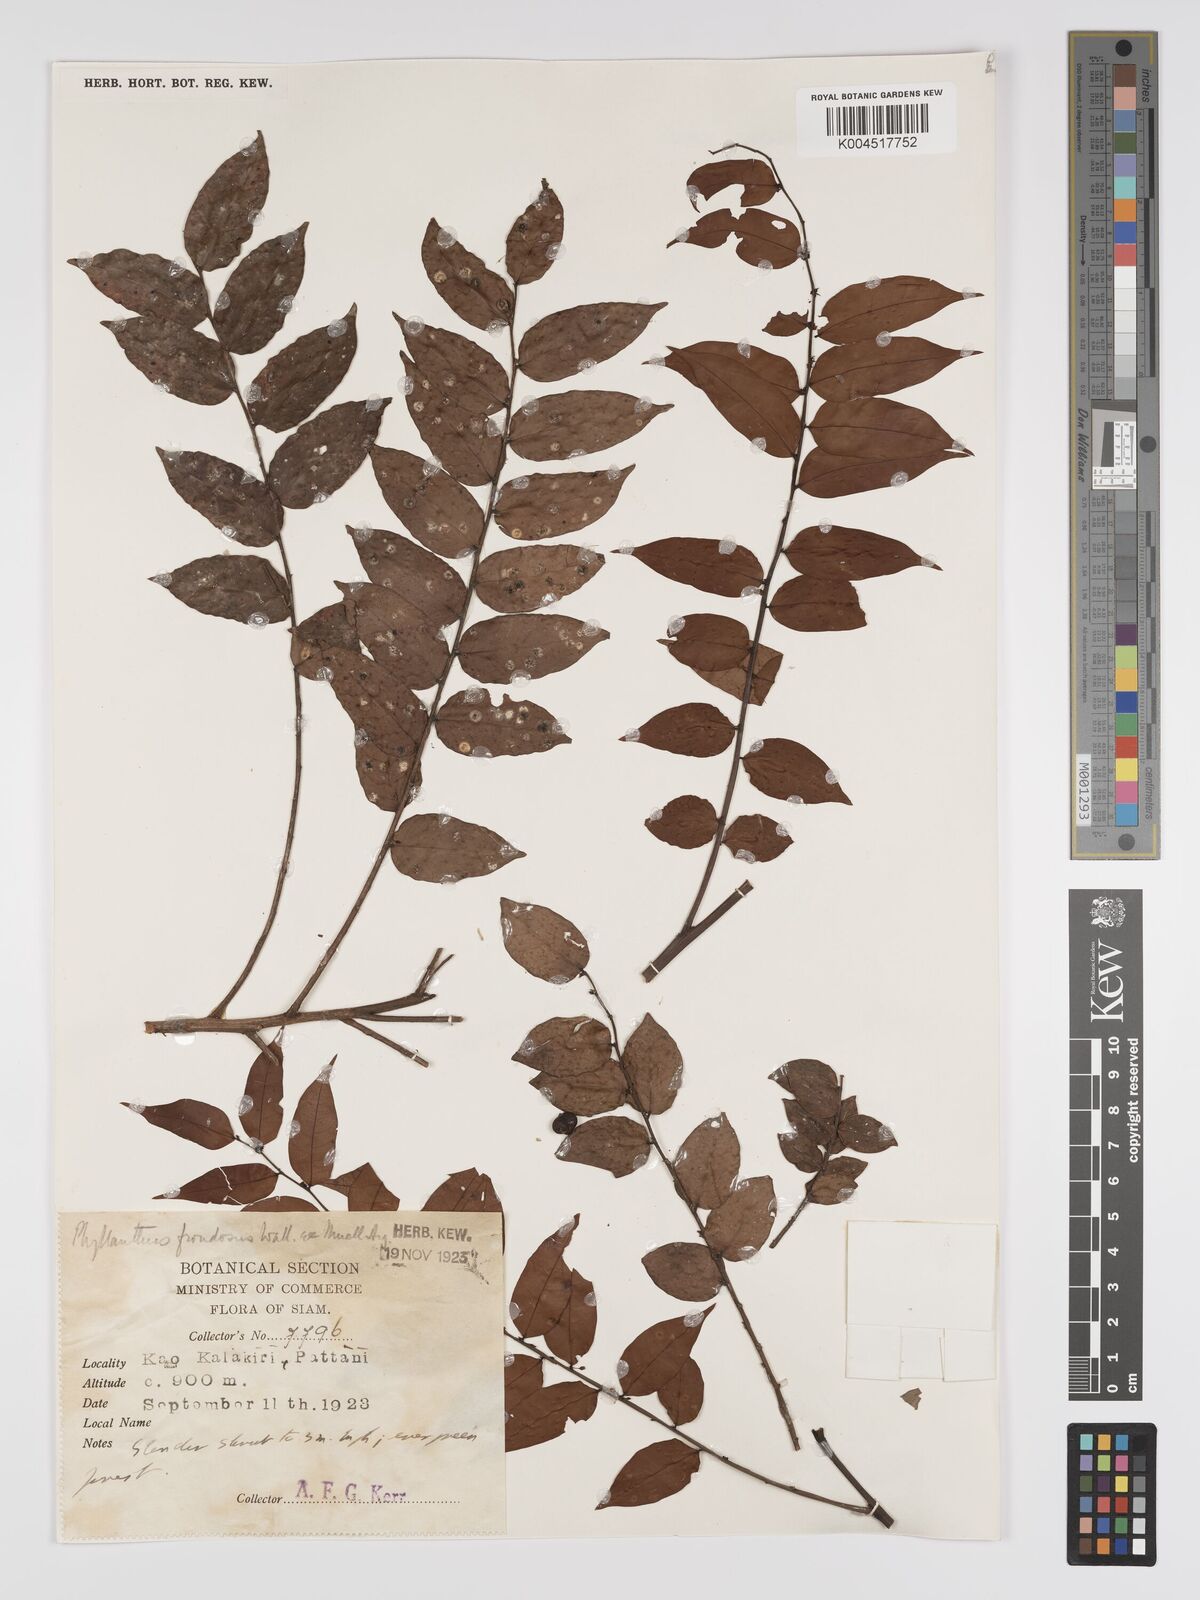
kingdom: Plantae
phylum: Tracheophyta
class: Magnoliopsida
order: Malpighiales
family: Phyllanthaceae
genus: Phyllanthus
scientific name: Phyllanthus
